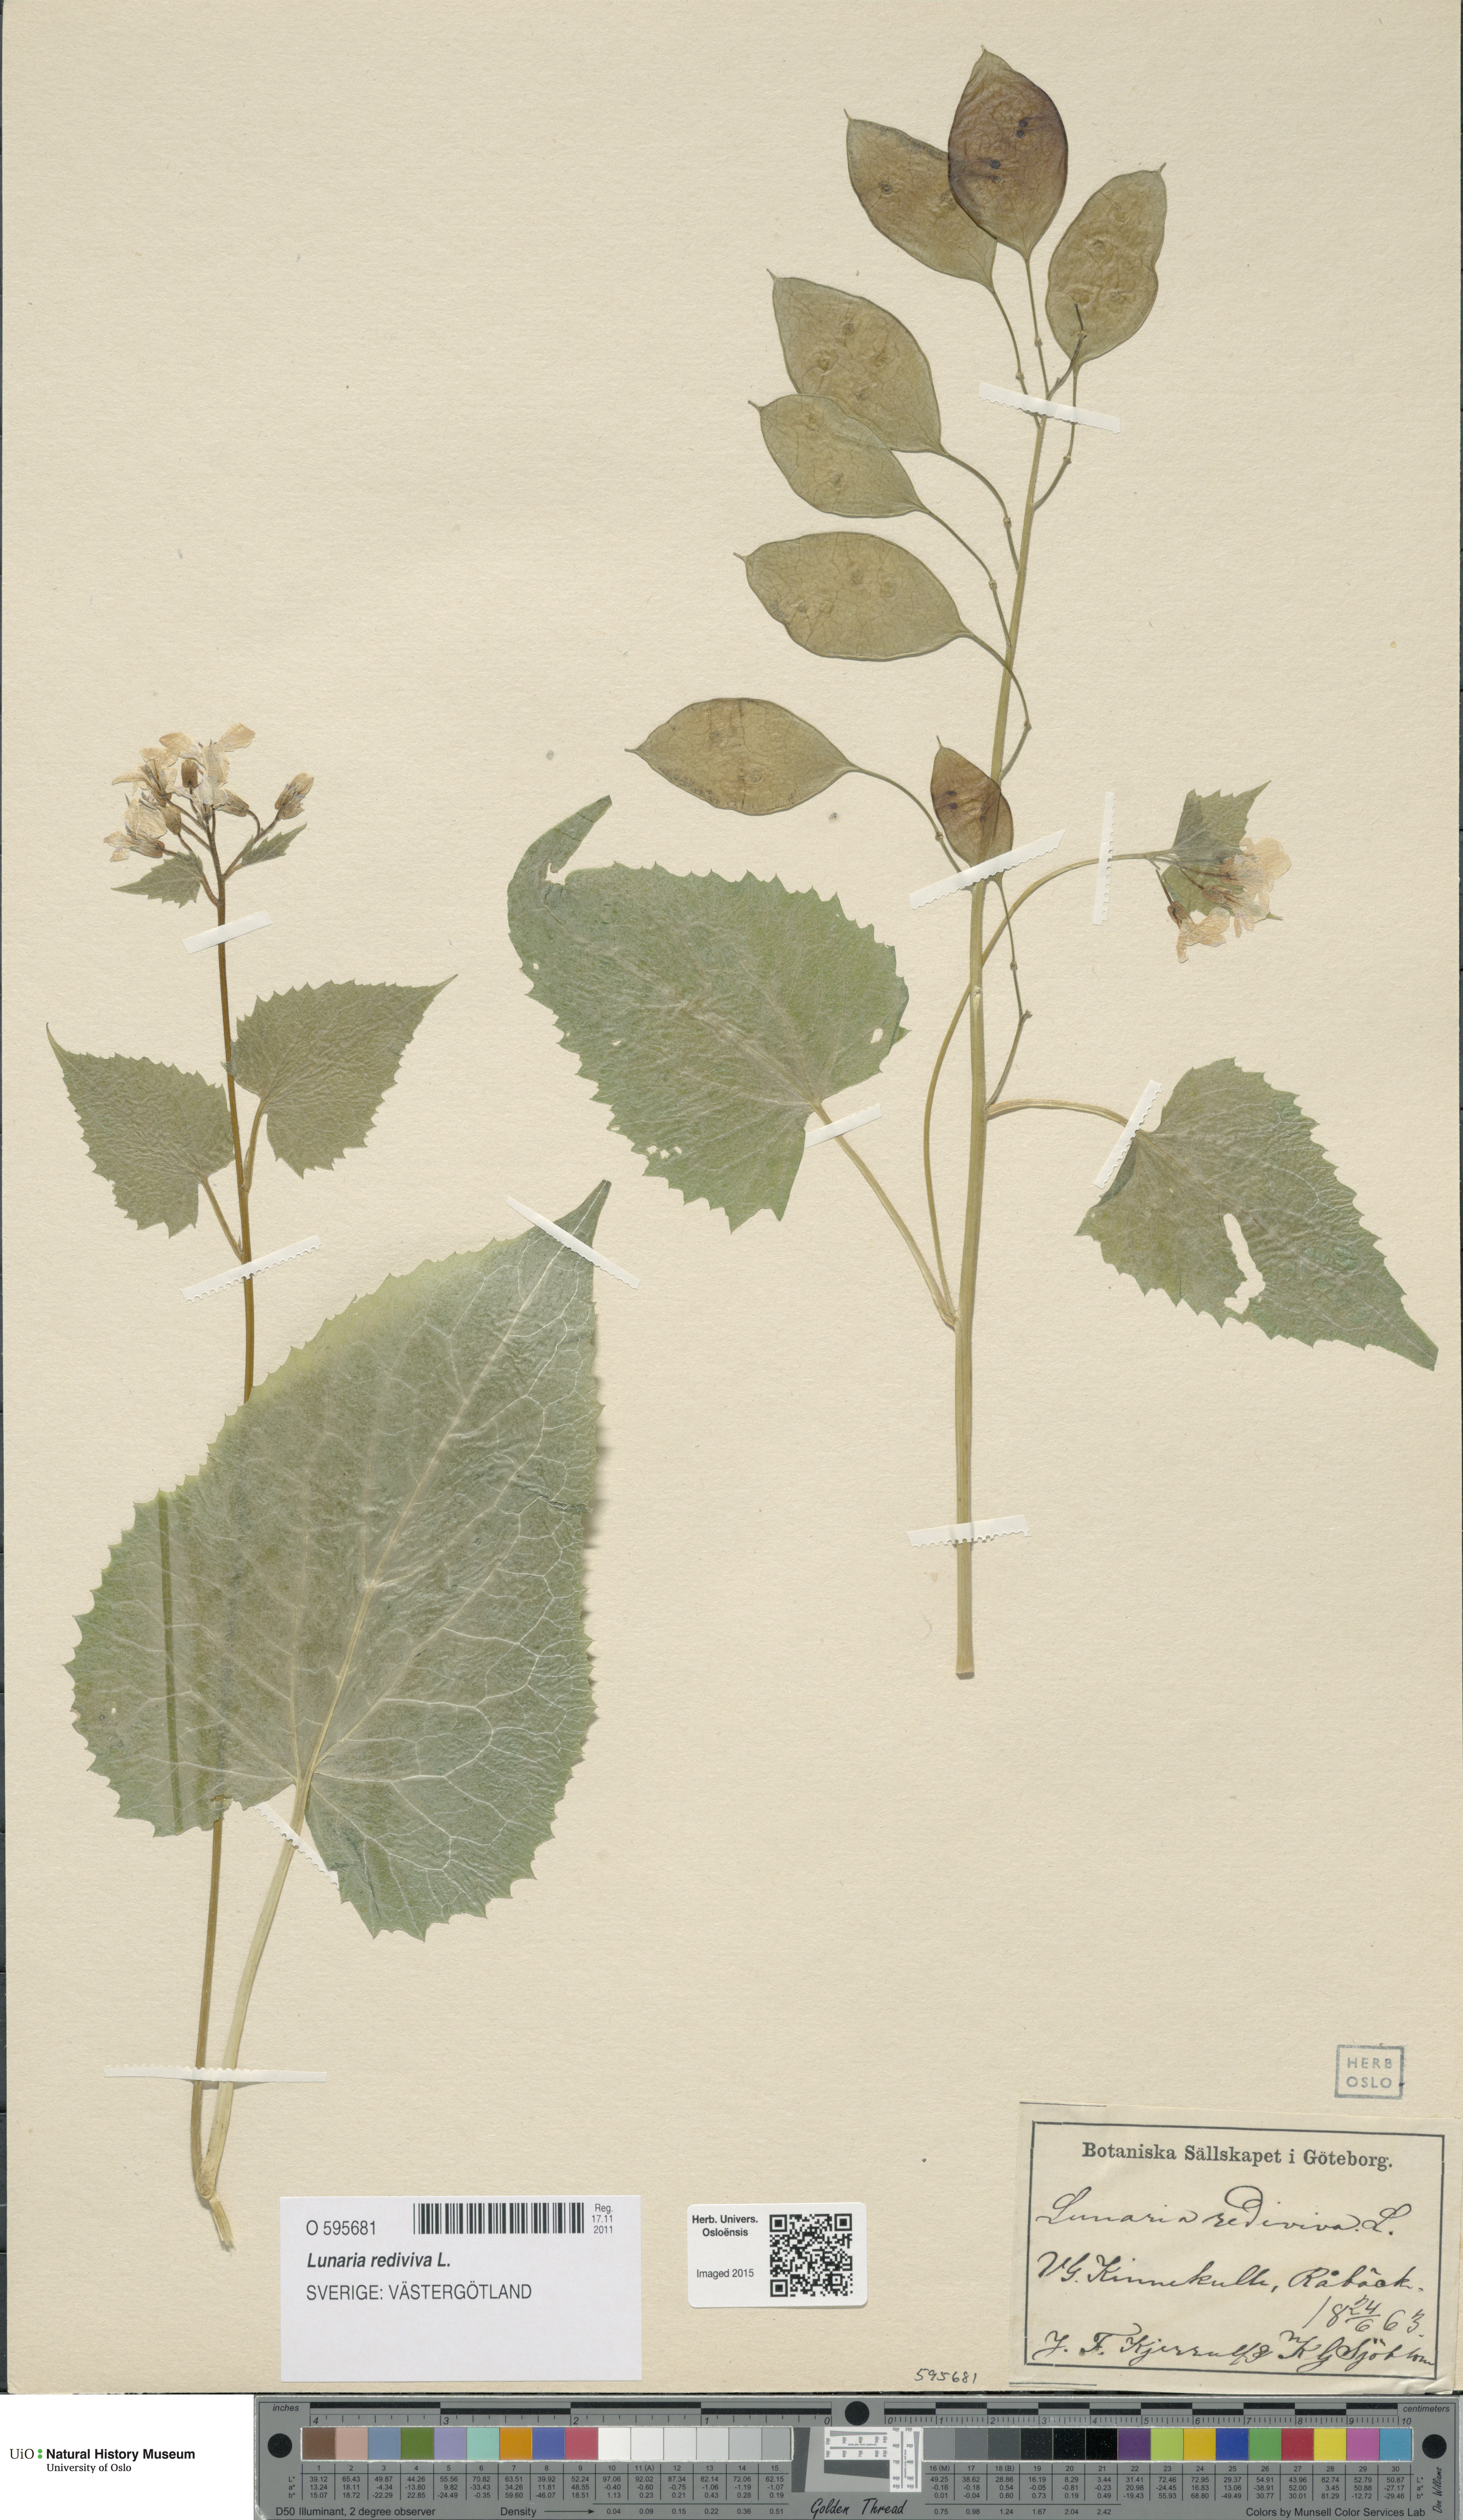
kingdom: Plantae
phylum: Tracheophyta
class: Magnoliopsida
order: Brassicales
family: Brassicaceae
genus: Lunaria
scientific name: Lunaria rediviva
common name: Perennial honesty
